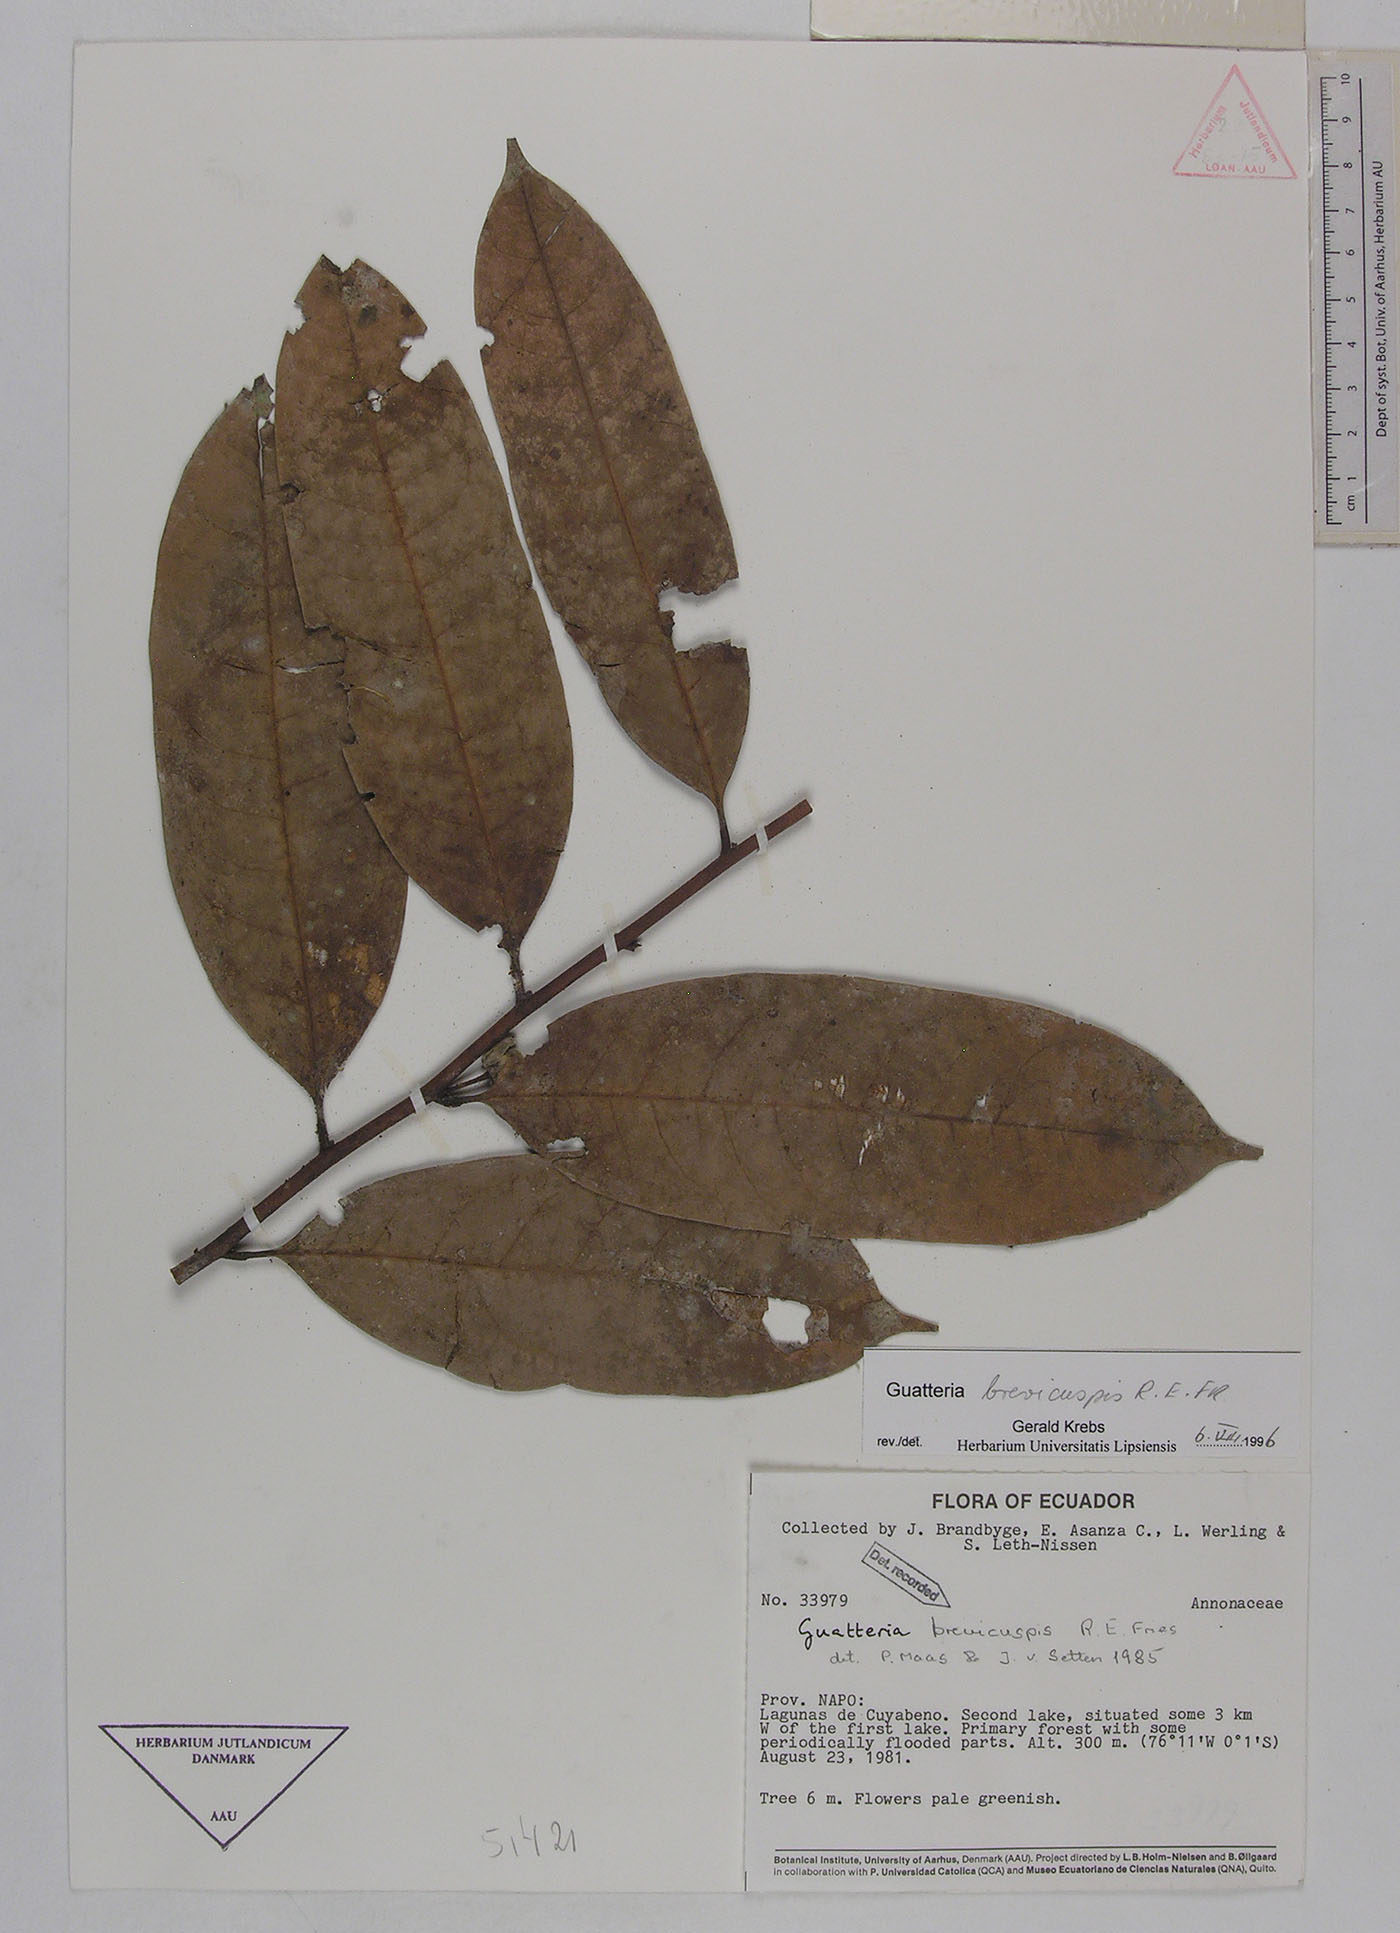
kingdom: Plantae
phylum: Tracheophyta
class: Magnoliopsida
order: Magnoliales
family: Annonaceae
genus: Guatteria
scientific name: Guatteria blepharophylla
